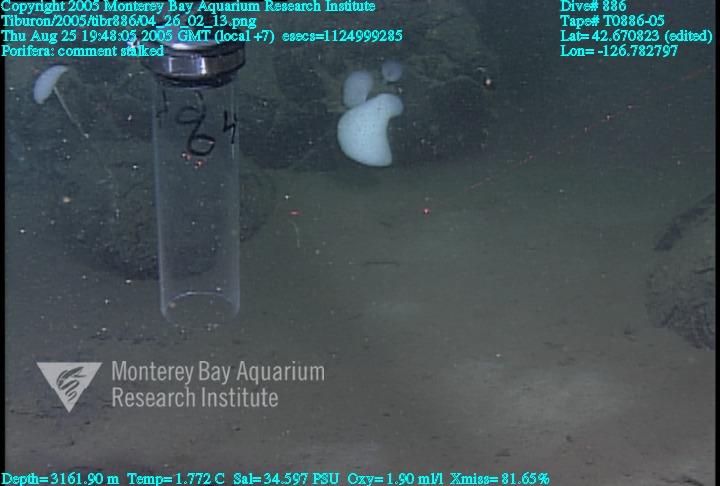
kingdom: Animalia
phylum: Porifera
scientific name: Porifera
